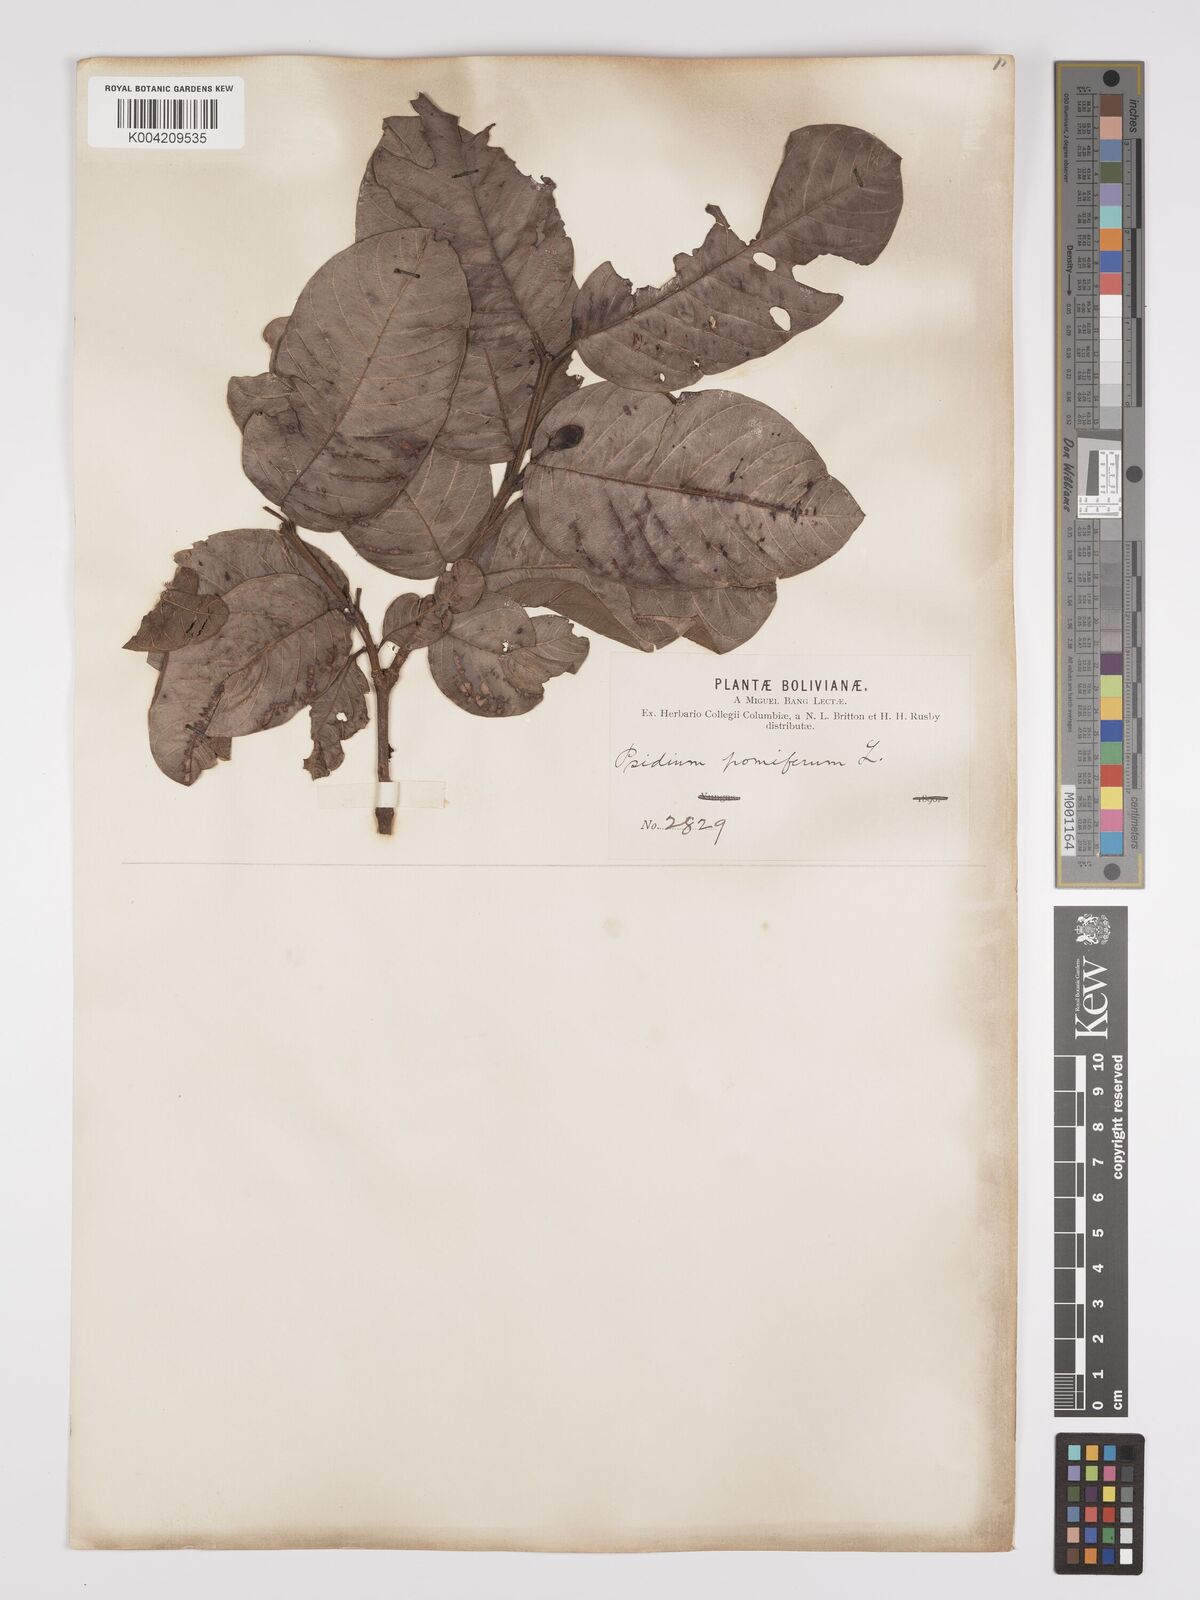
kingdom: Plantae
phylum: Tracheophyta
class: Magnoliopsida
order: Myrtales
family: Myrtaceae
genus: Psidium
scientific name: Psidium guajava
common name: Guava
